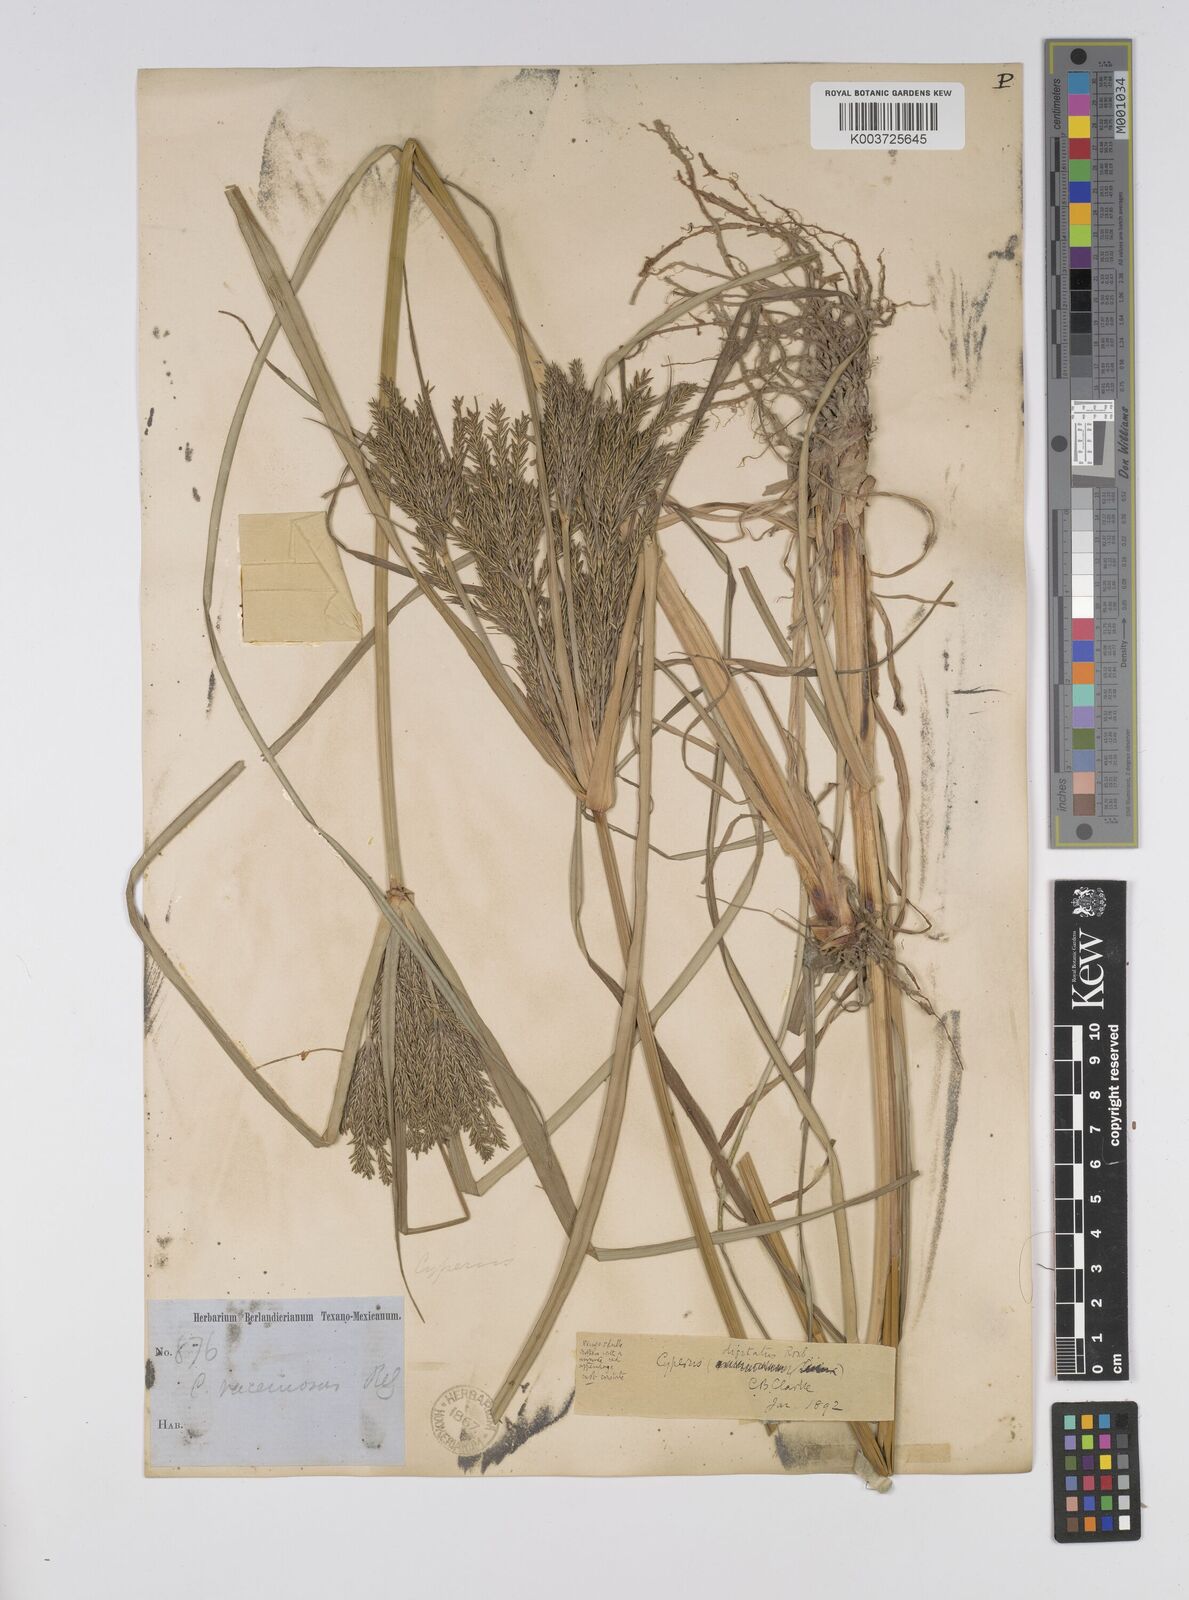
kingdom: Plantae
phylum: Tracheophyta
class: Liliopsida
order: Poales
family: Cyperaceae
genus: Cyperus
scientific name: Cyperus digitatus
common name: Finger flatsedge
